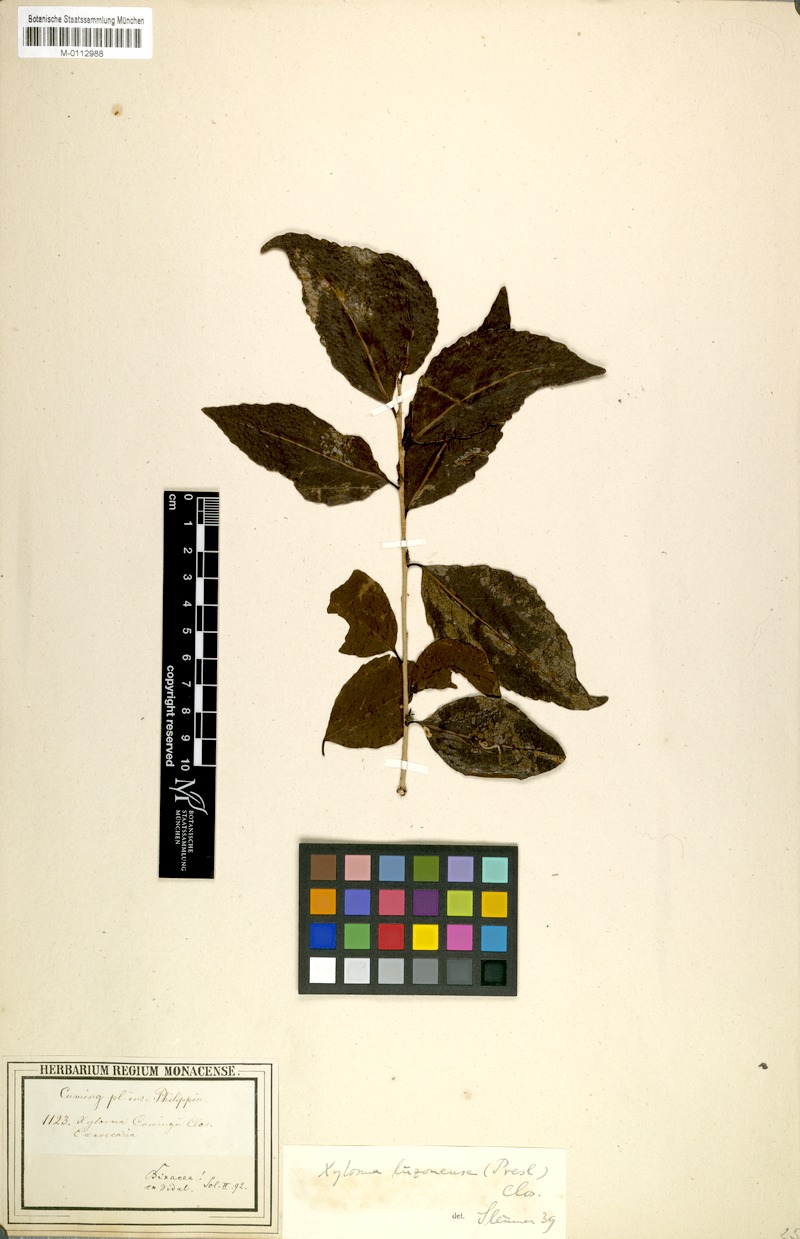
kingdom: Plantae
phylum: Tracheophyta
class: Magnoliopsida
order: Malpighiales
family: Salicaceae
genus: Xylosma
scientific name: Xylosma luzonensis
